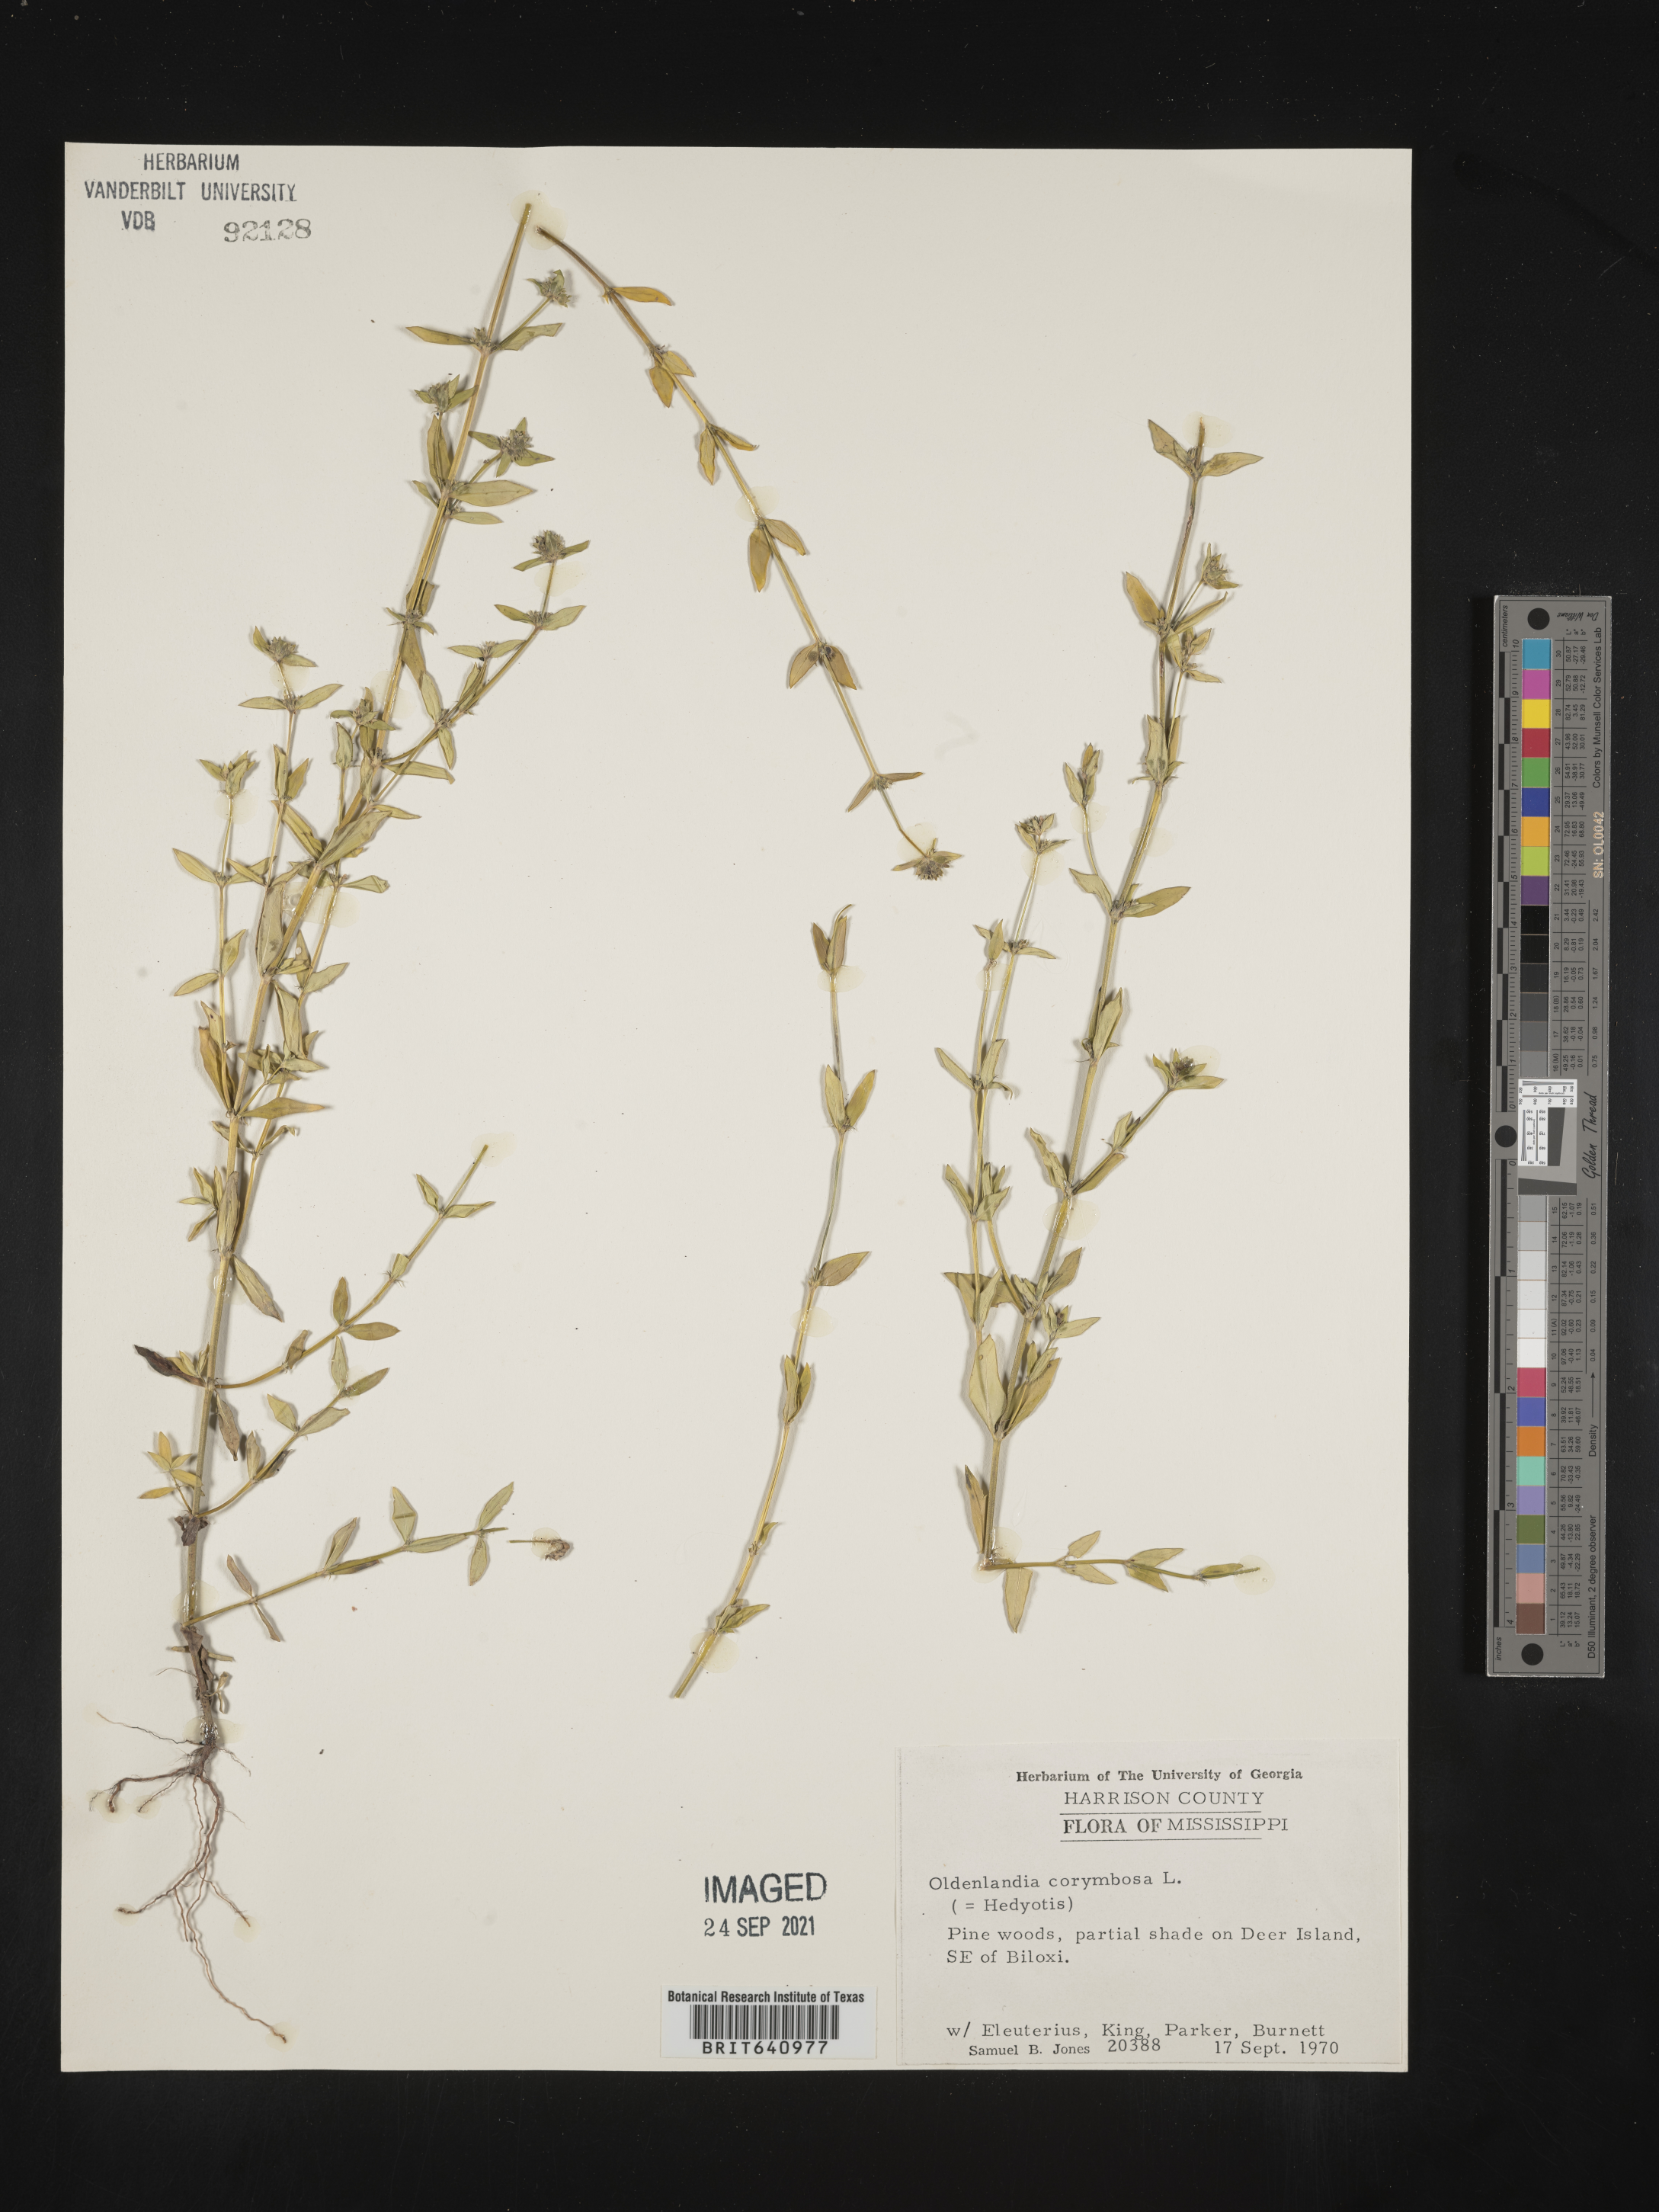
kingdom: Plantae
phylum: Tracheophyta
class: Magnoliopsida
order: Gentianales
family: Rubiaceae
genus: Oldenlandia
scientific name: Oldenlandia corymbosa
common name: Flat-top mille graines
